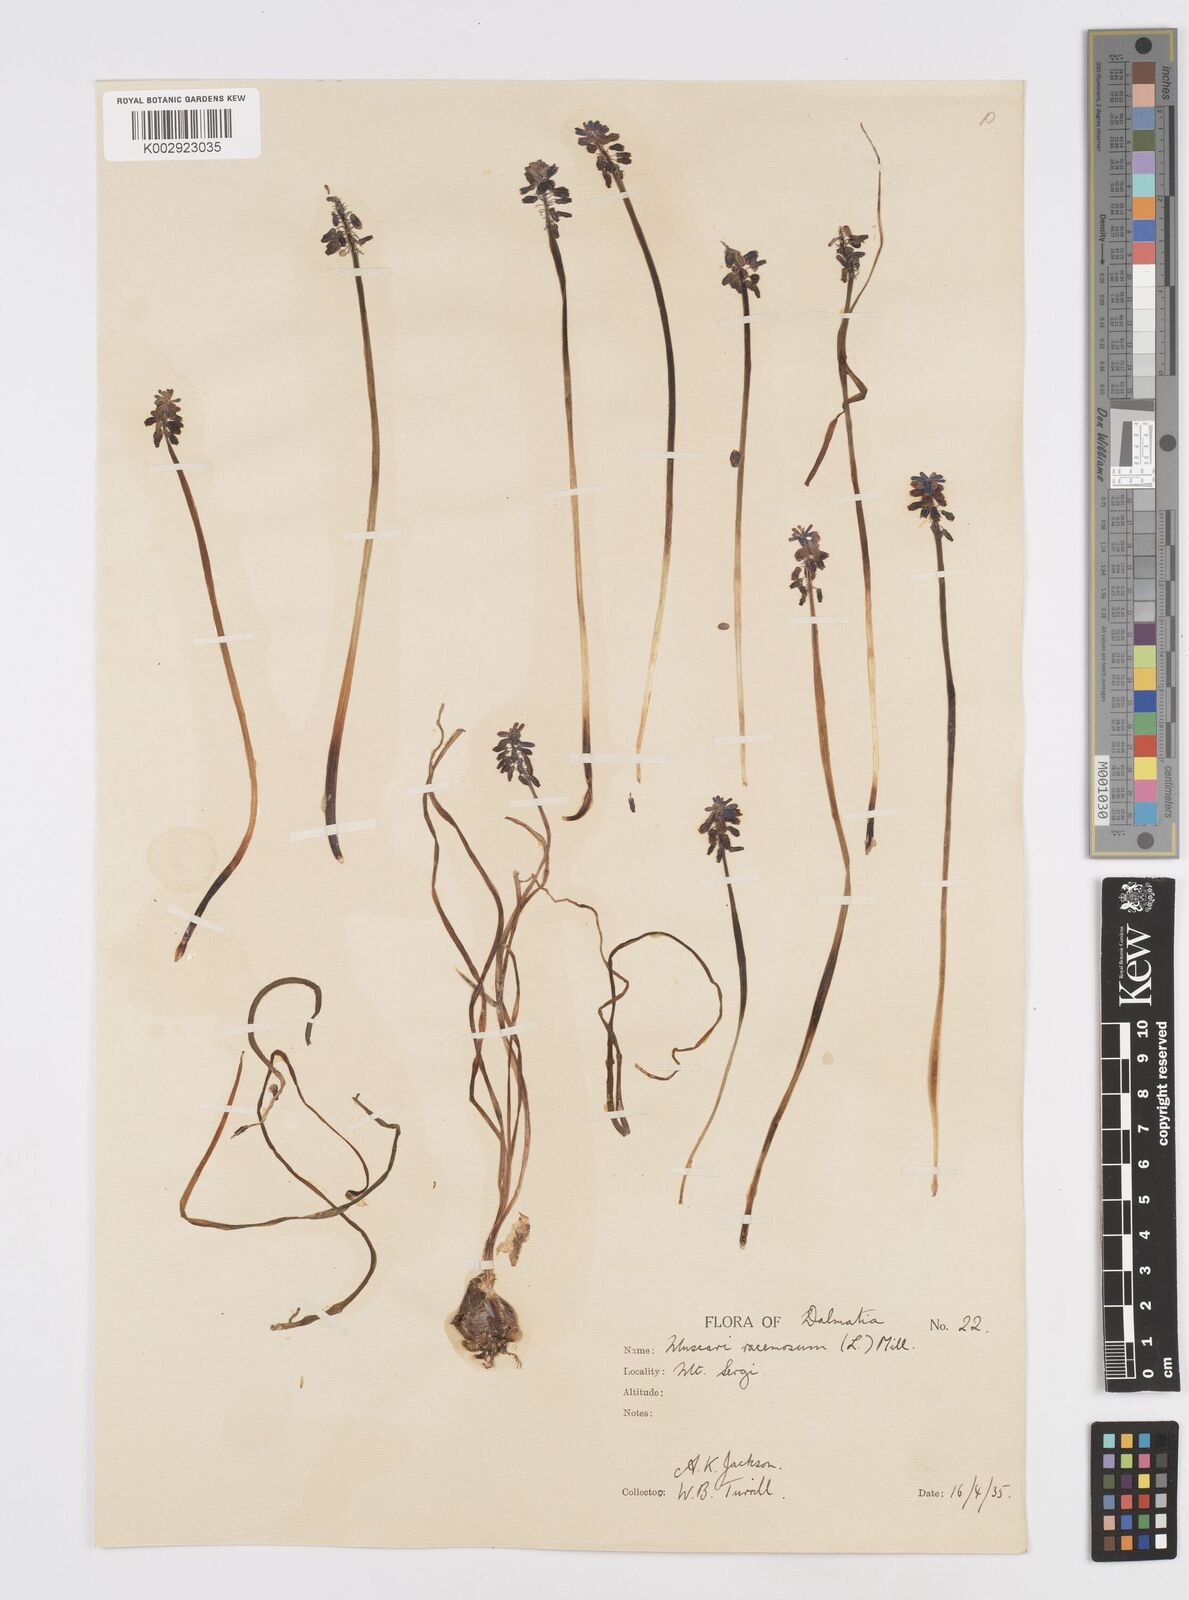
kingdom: Plantae
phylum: Tracheophyta
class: Liliopsida
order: Asparagales
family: Asparagaceae
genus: Muscarimia
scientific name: Muscarimia muscari
